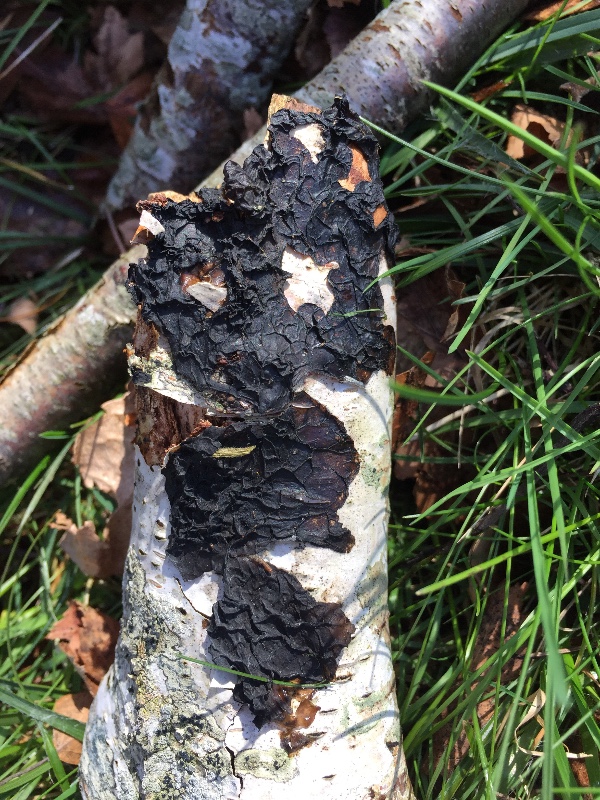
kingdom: Fungi
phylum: Basidiomycota
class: Agaricomycetes
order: Auriculariales
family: Auriculariaceae
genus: Exidia
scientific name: Exidia nigricans
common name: almindelig bævretop
